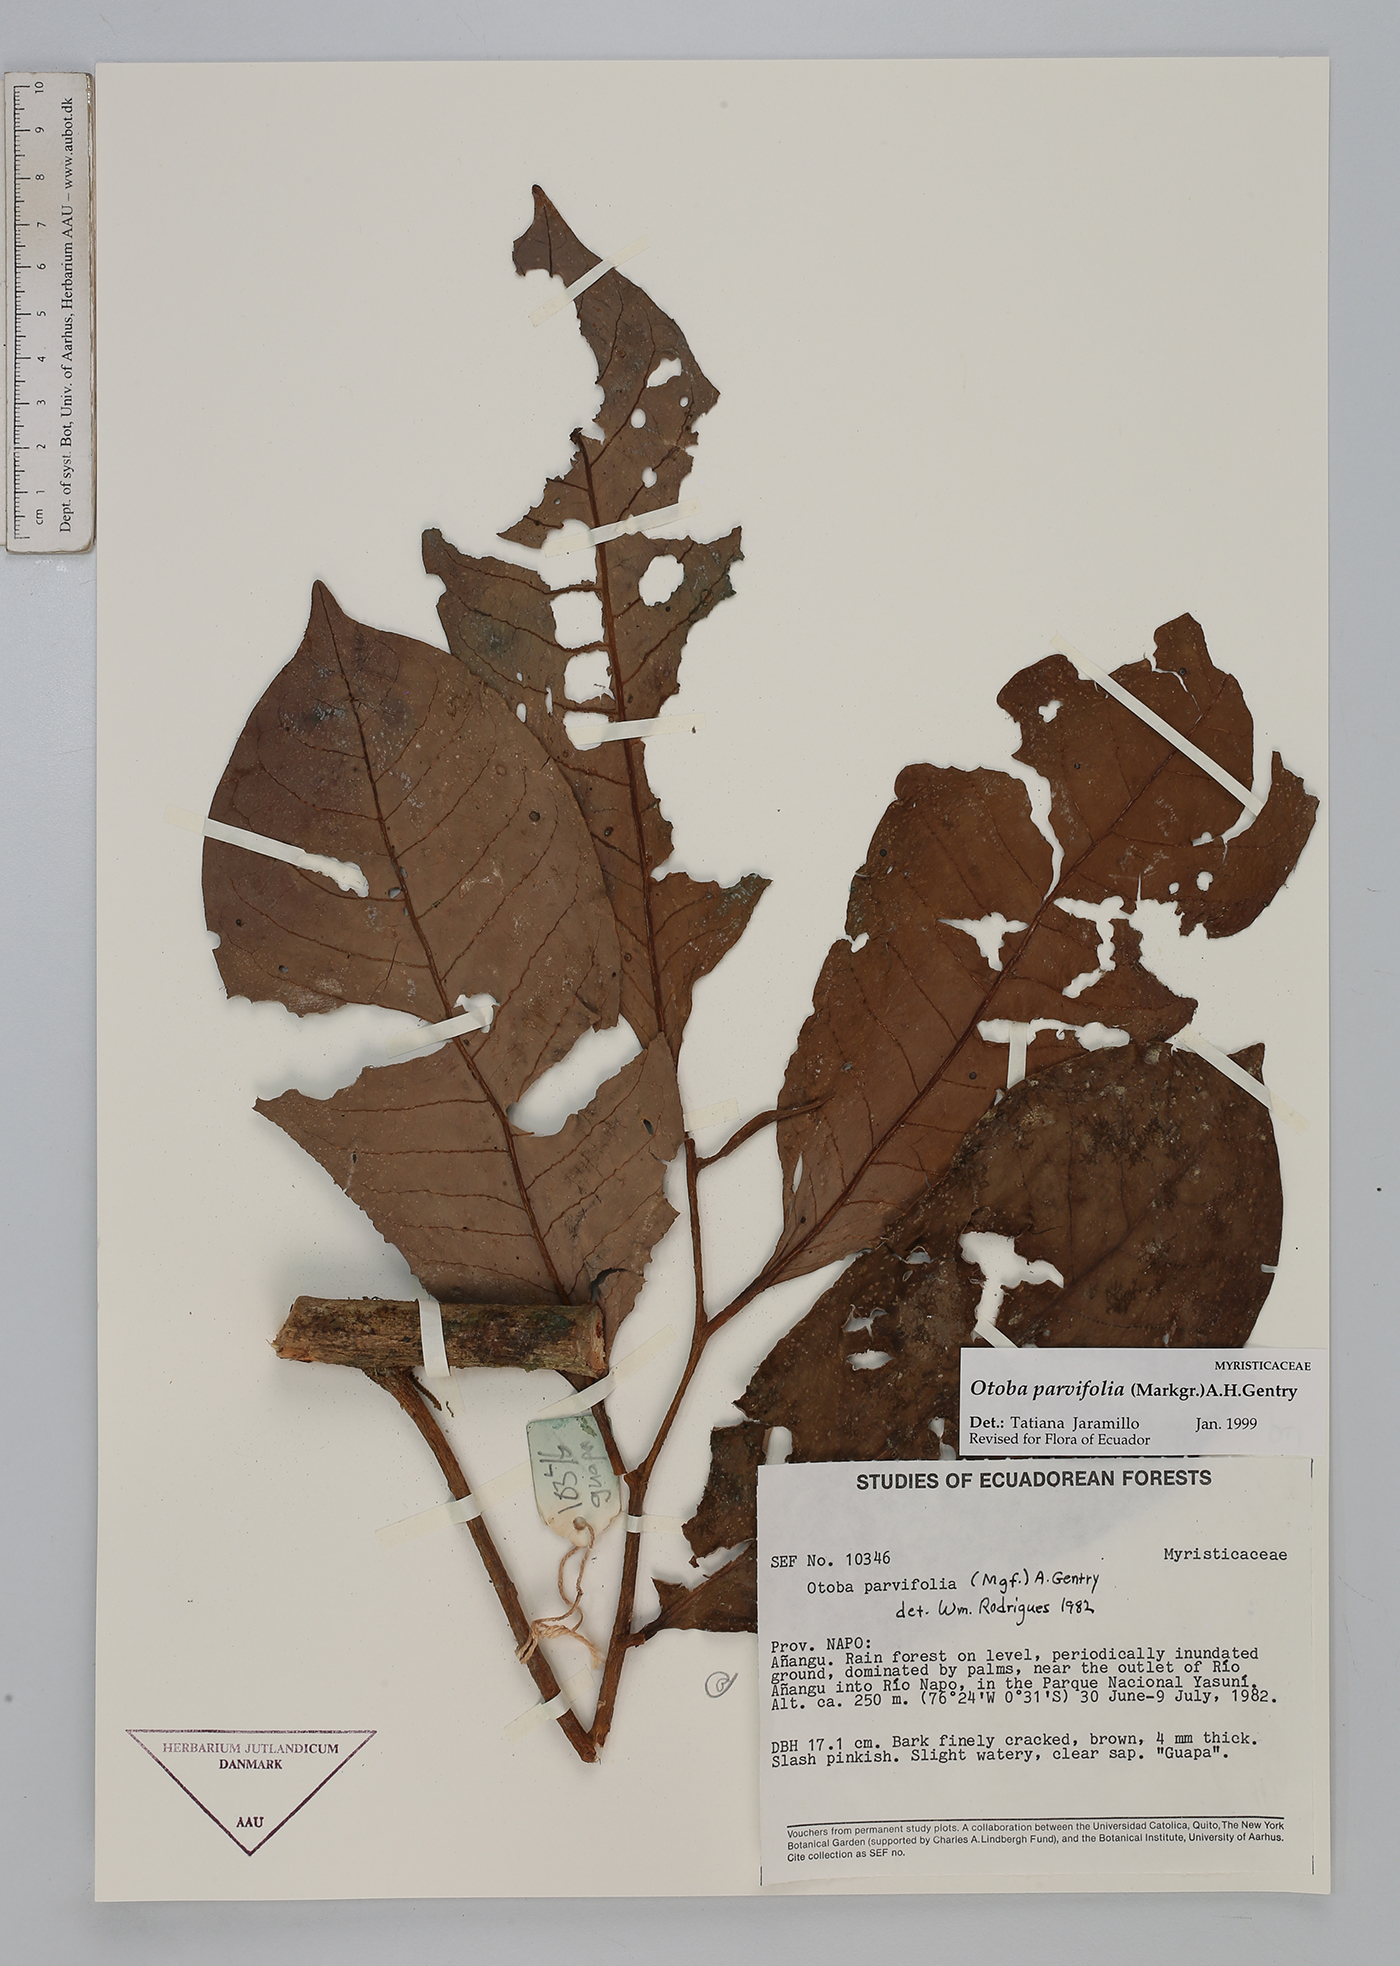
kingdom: Plantae
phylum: Tracheophyta
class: Magnoliopsida
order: Magnoliales
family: Myristicaceae
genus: Otoba
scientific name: Otoba parvifolia
